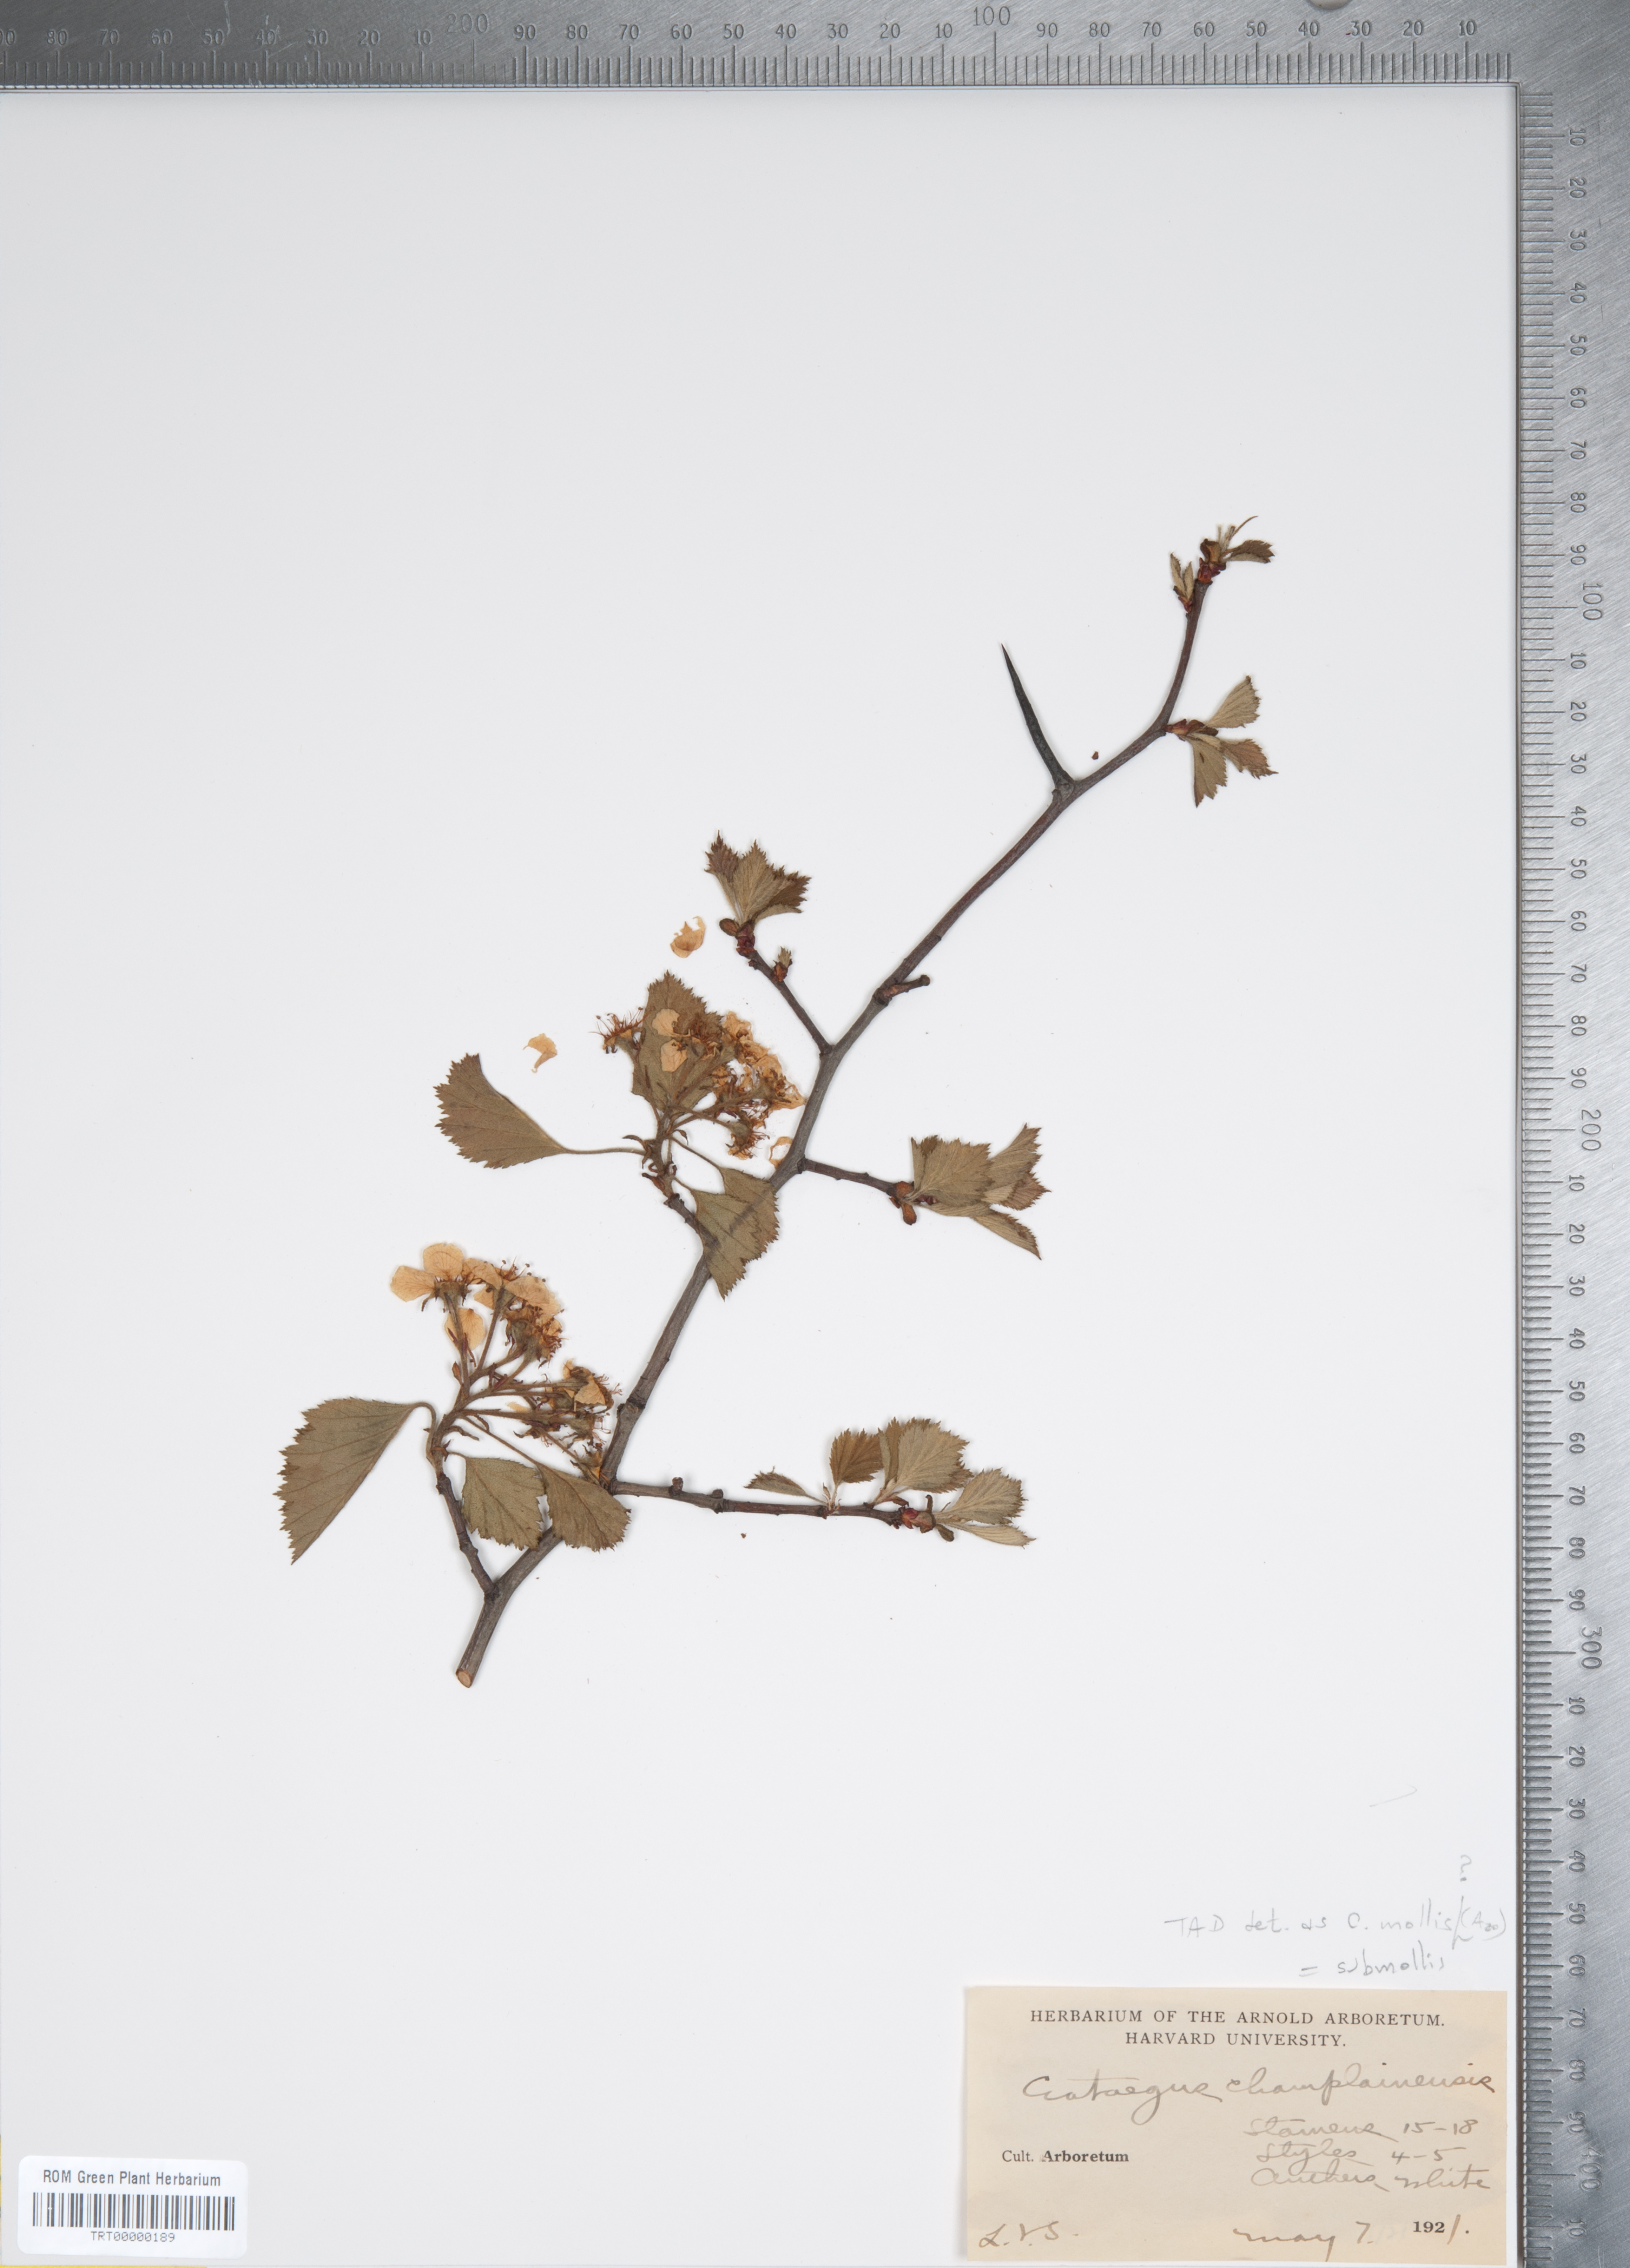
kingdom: Plantae
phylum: Tracheophyta
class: Magnoliopsida
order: Rosales
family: Rosaceae
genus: Crataegus
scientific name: Crataegus mollis
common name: Downy hawthorn
